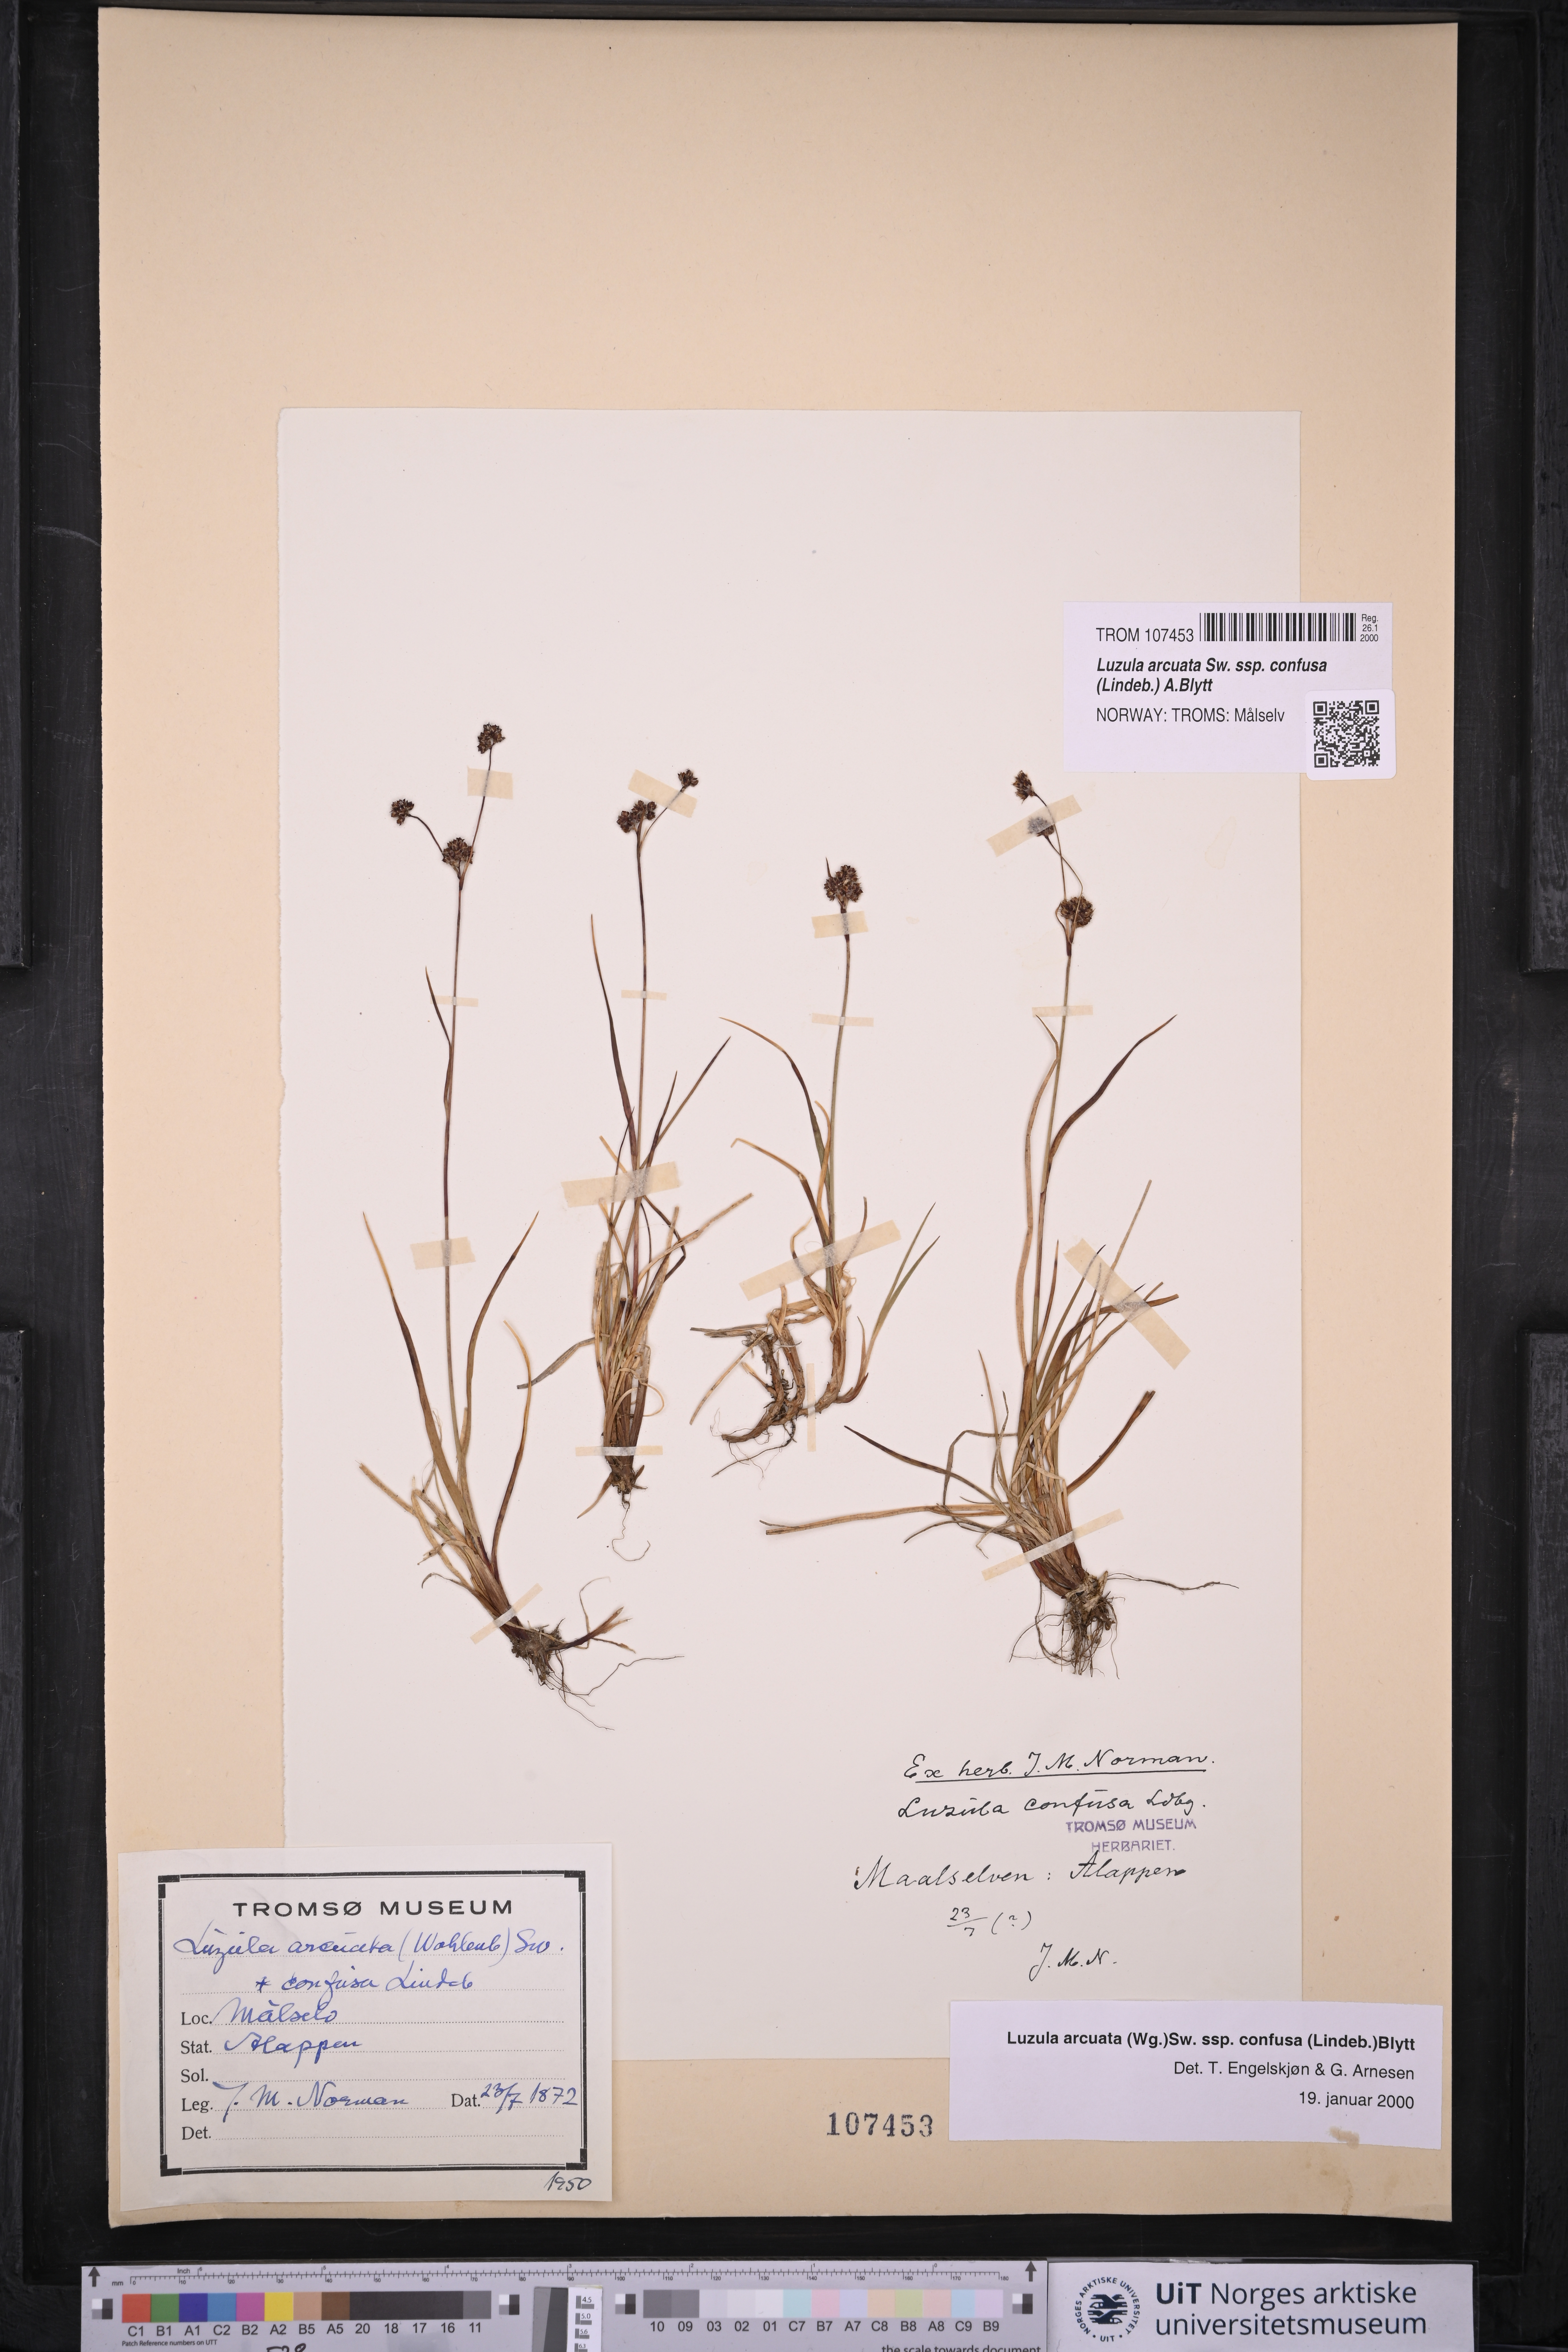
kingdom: Plantae
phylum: Tracheophyta
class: Liliopsida
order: Poales
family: Juncaceae
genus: Luzula
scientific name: Luzula confusa
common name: Northern wood rush
